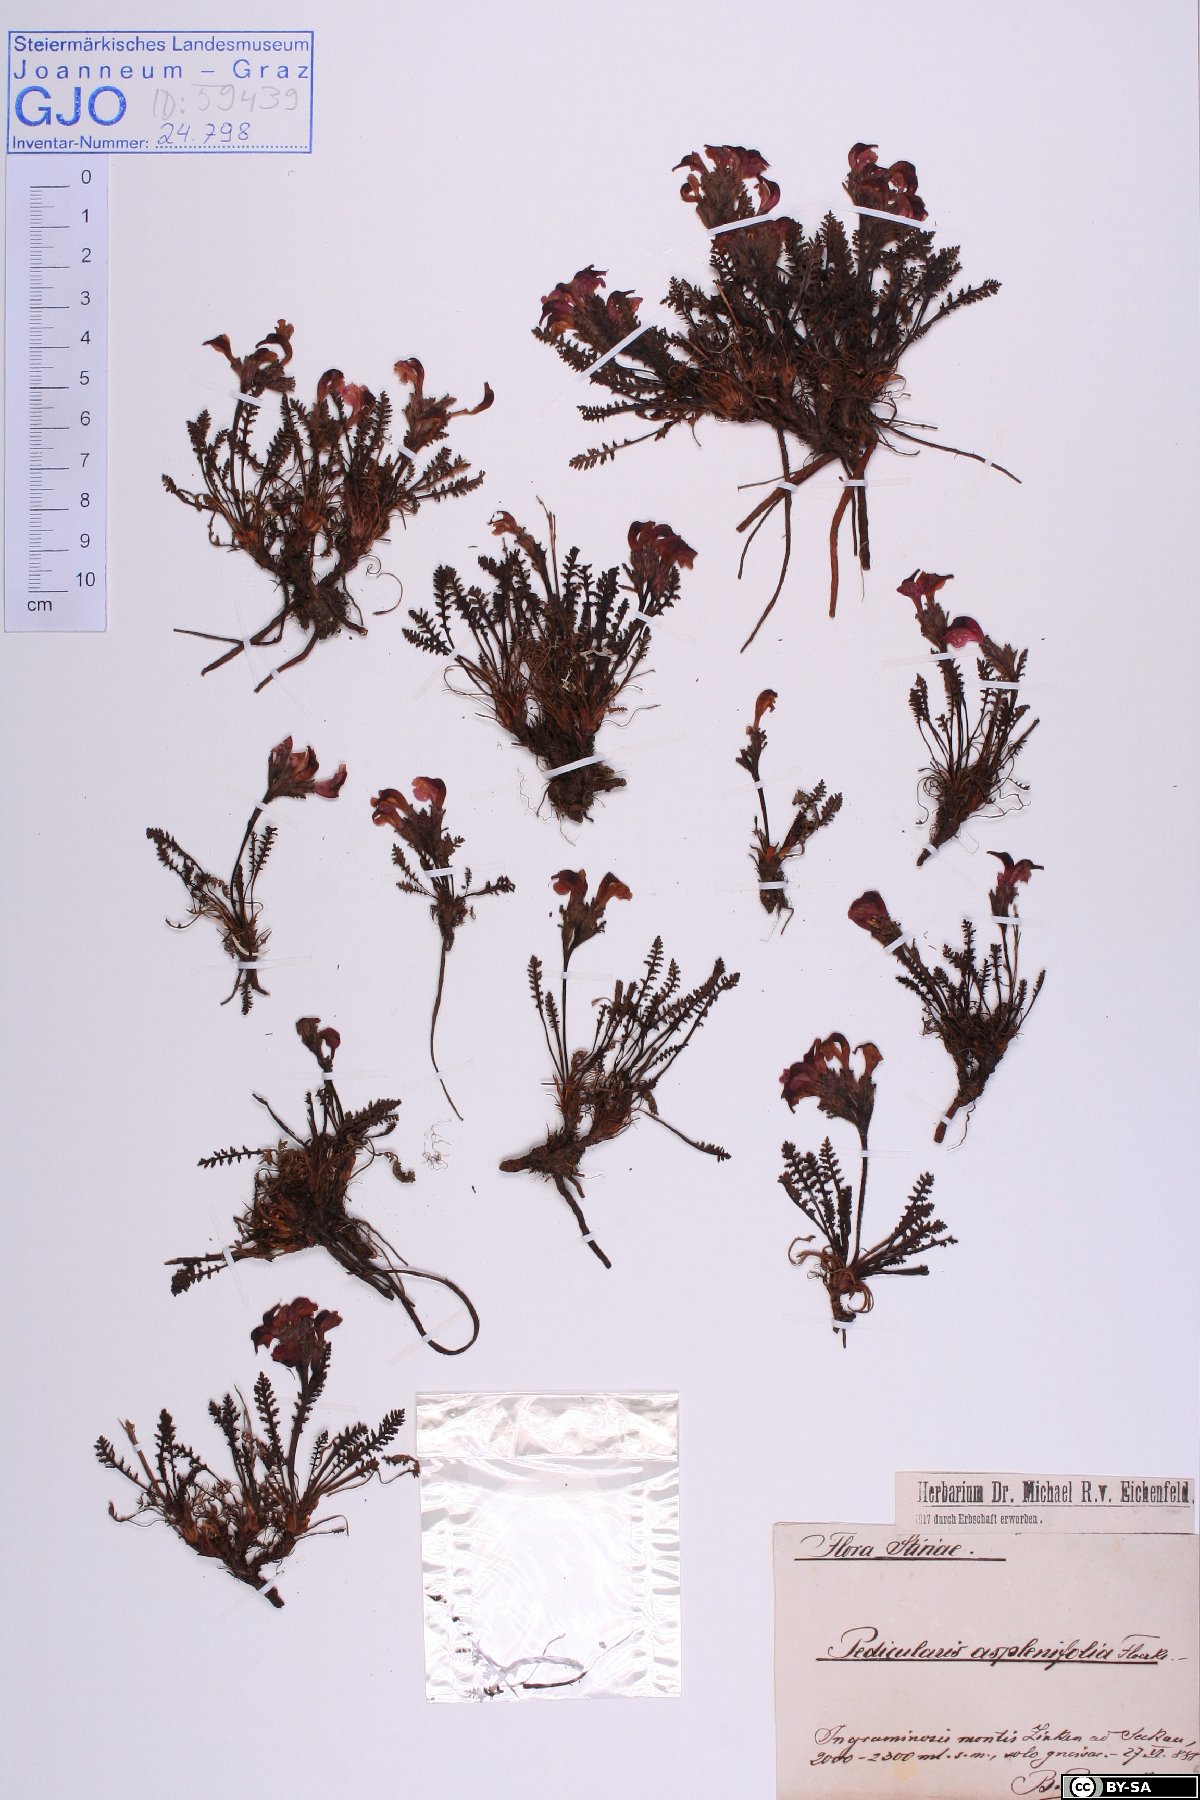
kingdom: Plantae
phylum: Tracheophyta
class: Magnoliopsida
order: Lamiales
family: Orobanchaceae
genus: Pedicularis
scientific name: Pedicularis asplenifolia
